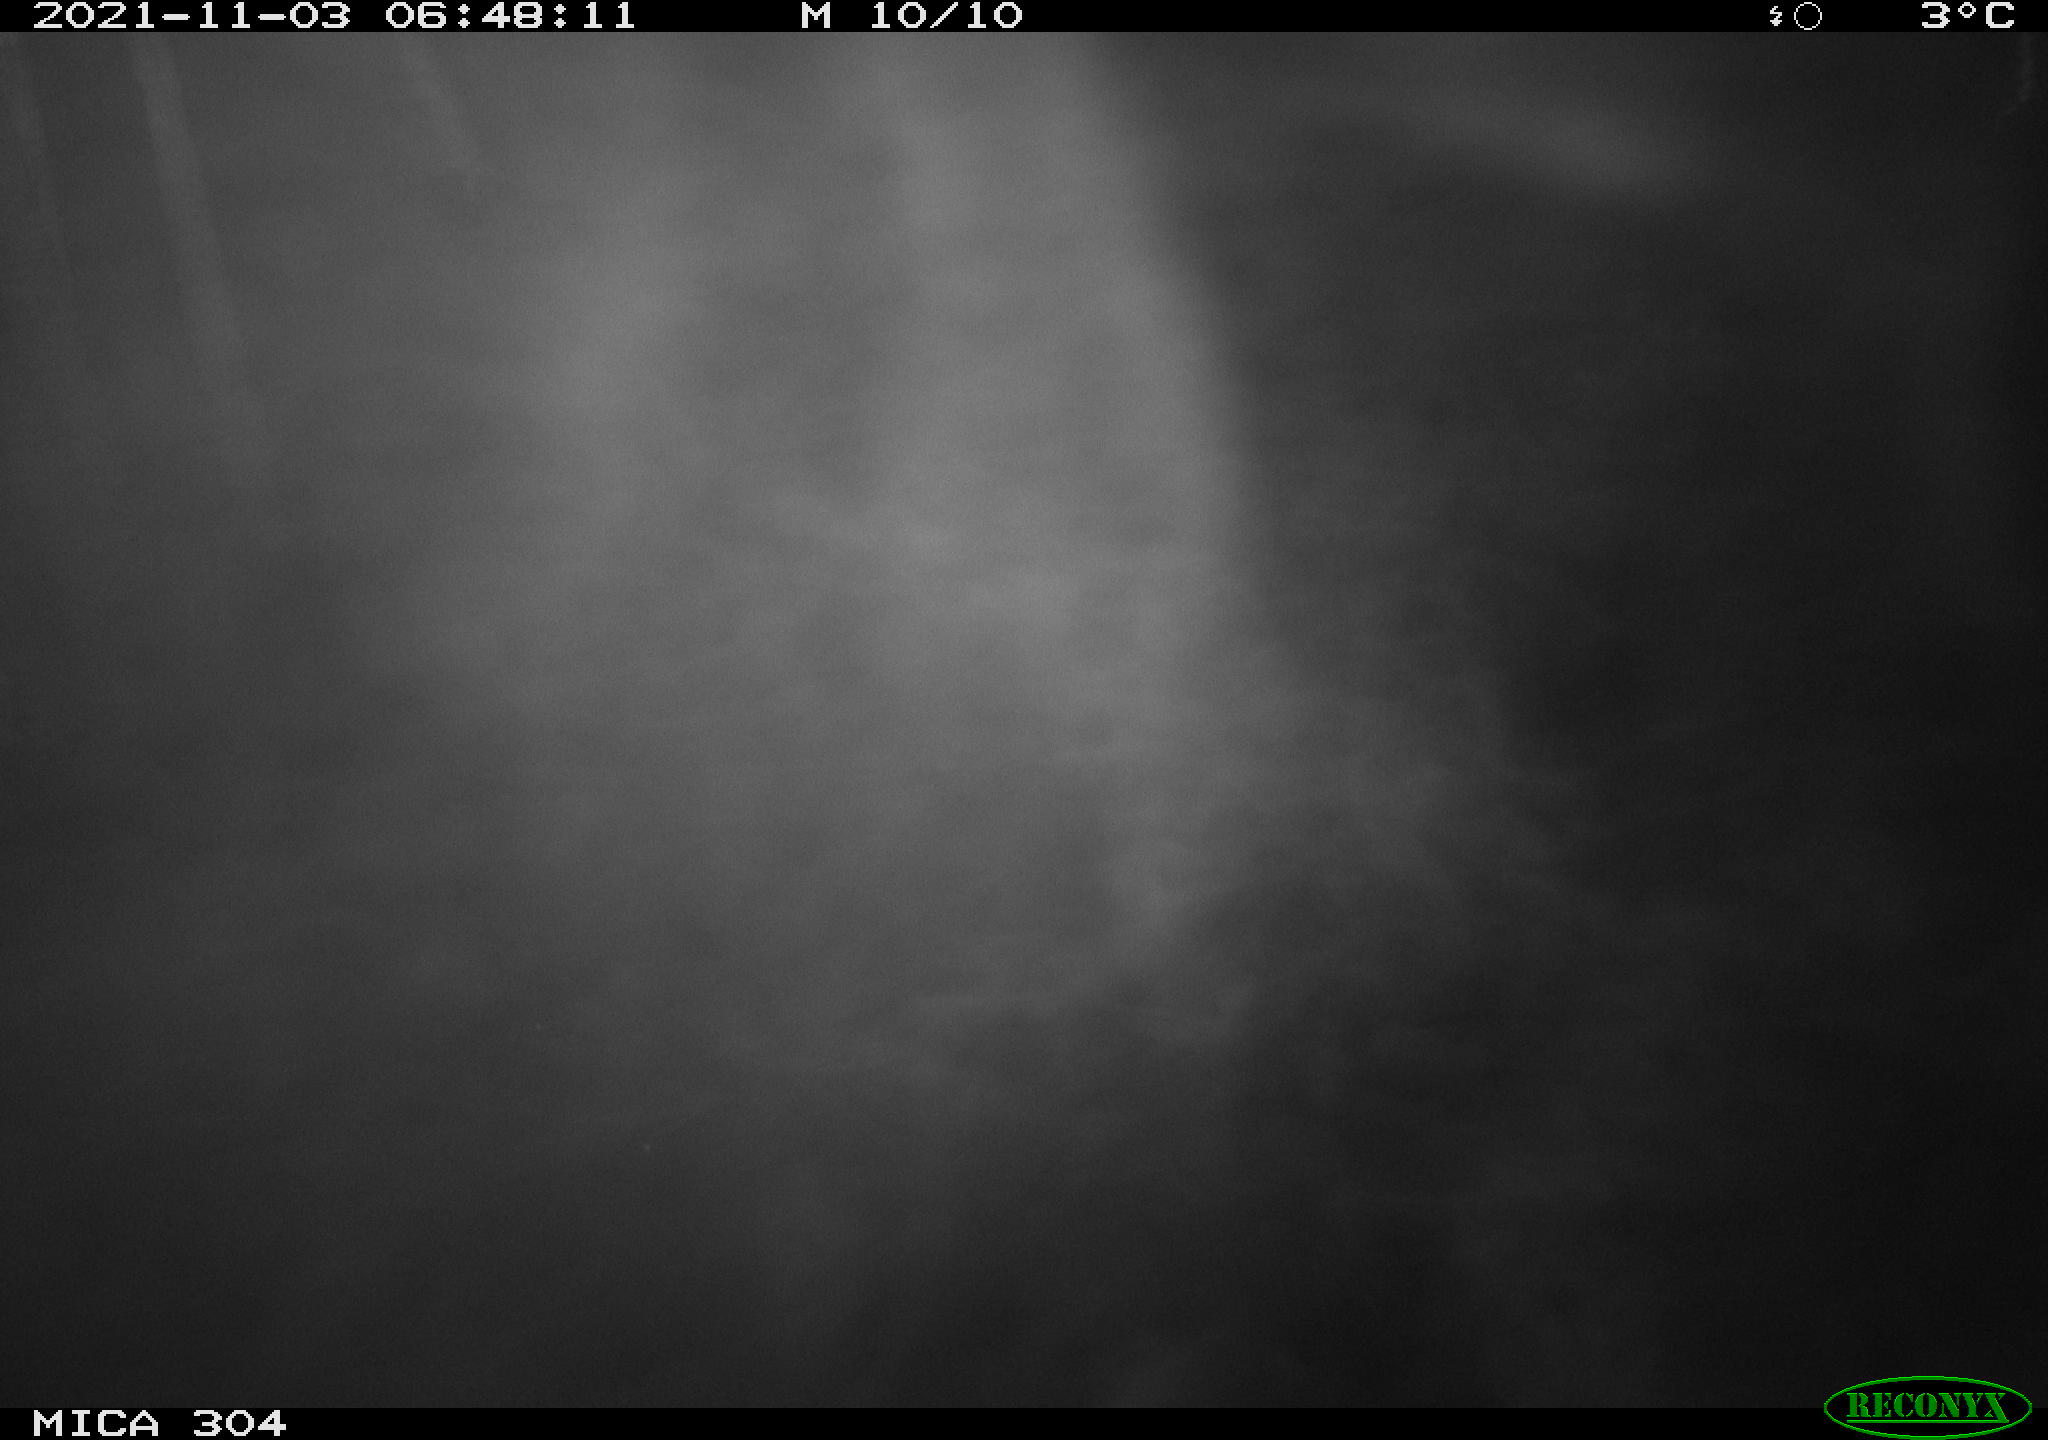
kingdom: Animalia
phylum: Chordata
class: Mammalia
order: Rodentia
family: Muridae
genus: Rattus
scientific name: Rattus norvegicus
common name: Brown rat
